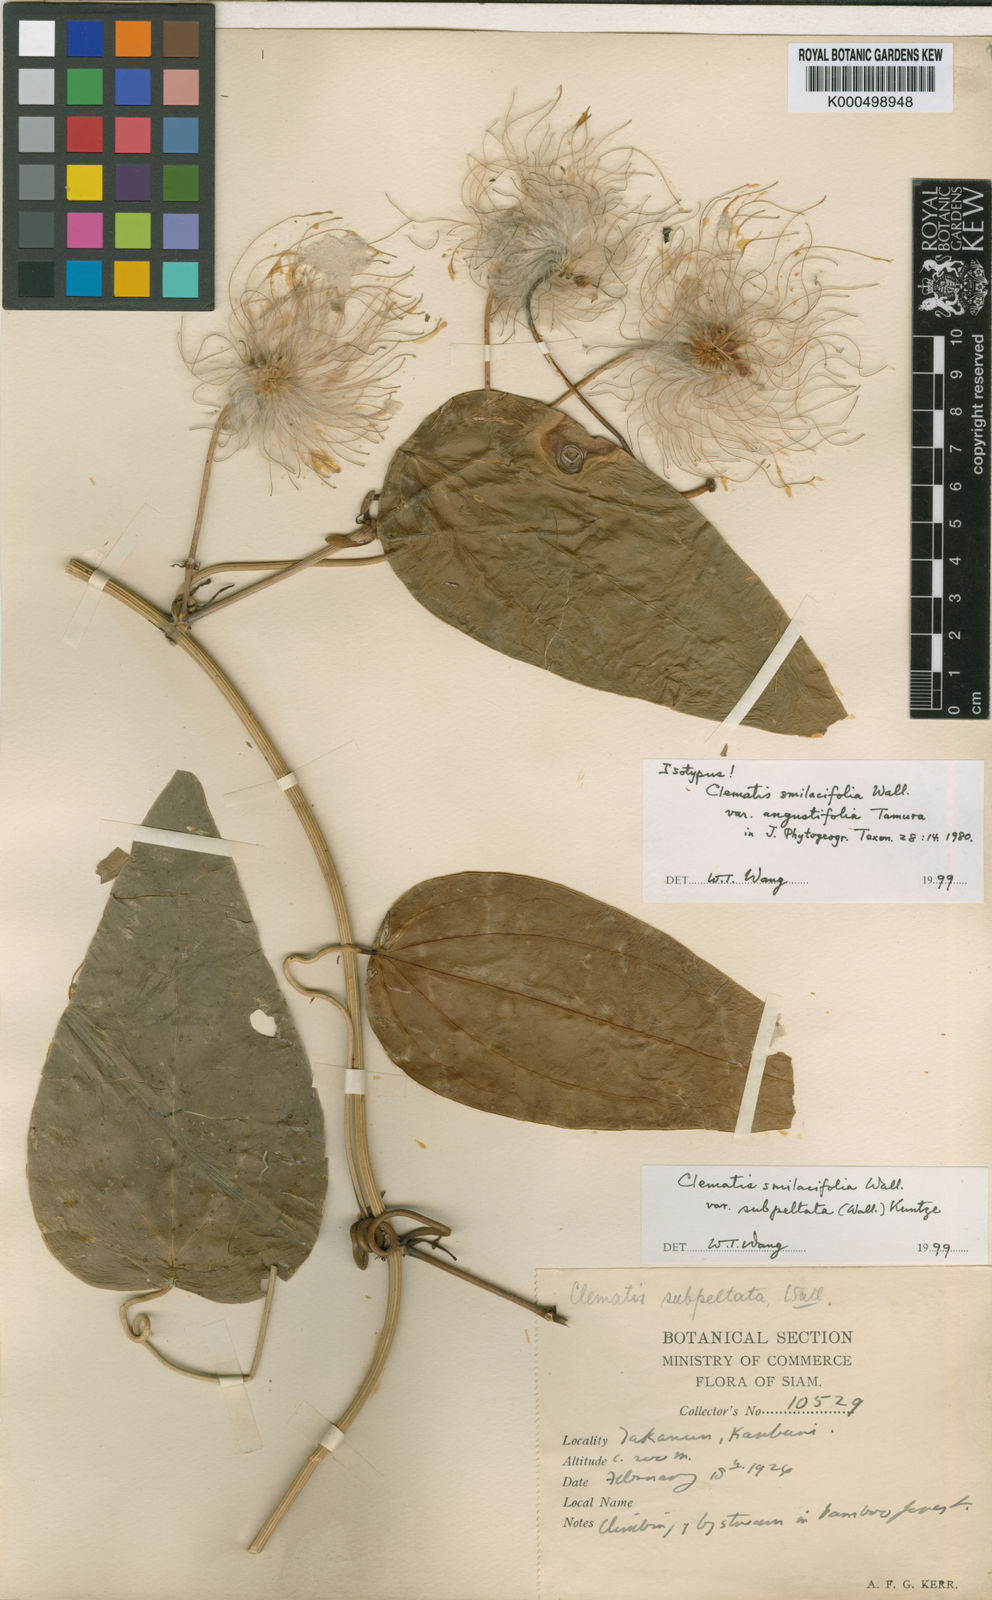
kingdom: Plantae
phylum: Tracheophyta
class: Magnoliopsida
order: Ranunculales
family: Ranunculaceae
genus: Clematis
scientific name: Clematis smilacifolia
